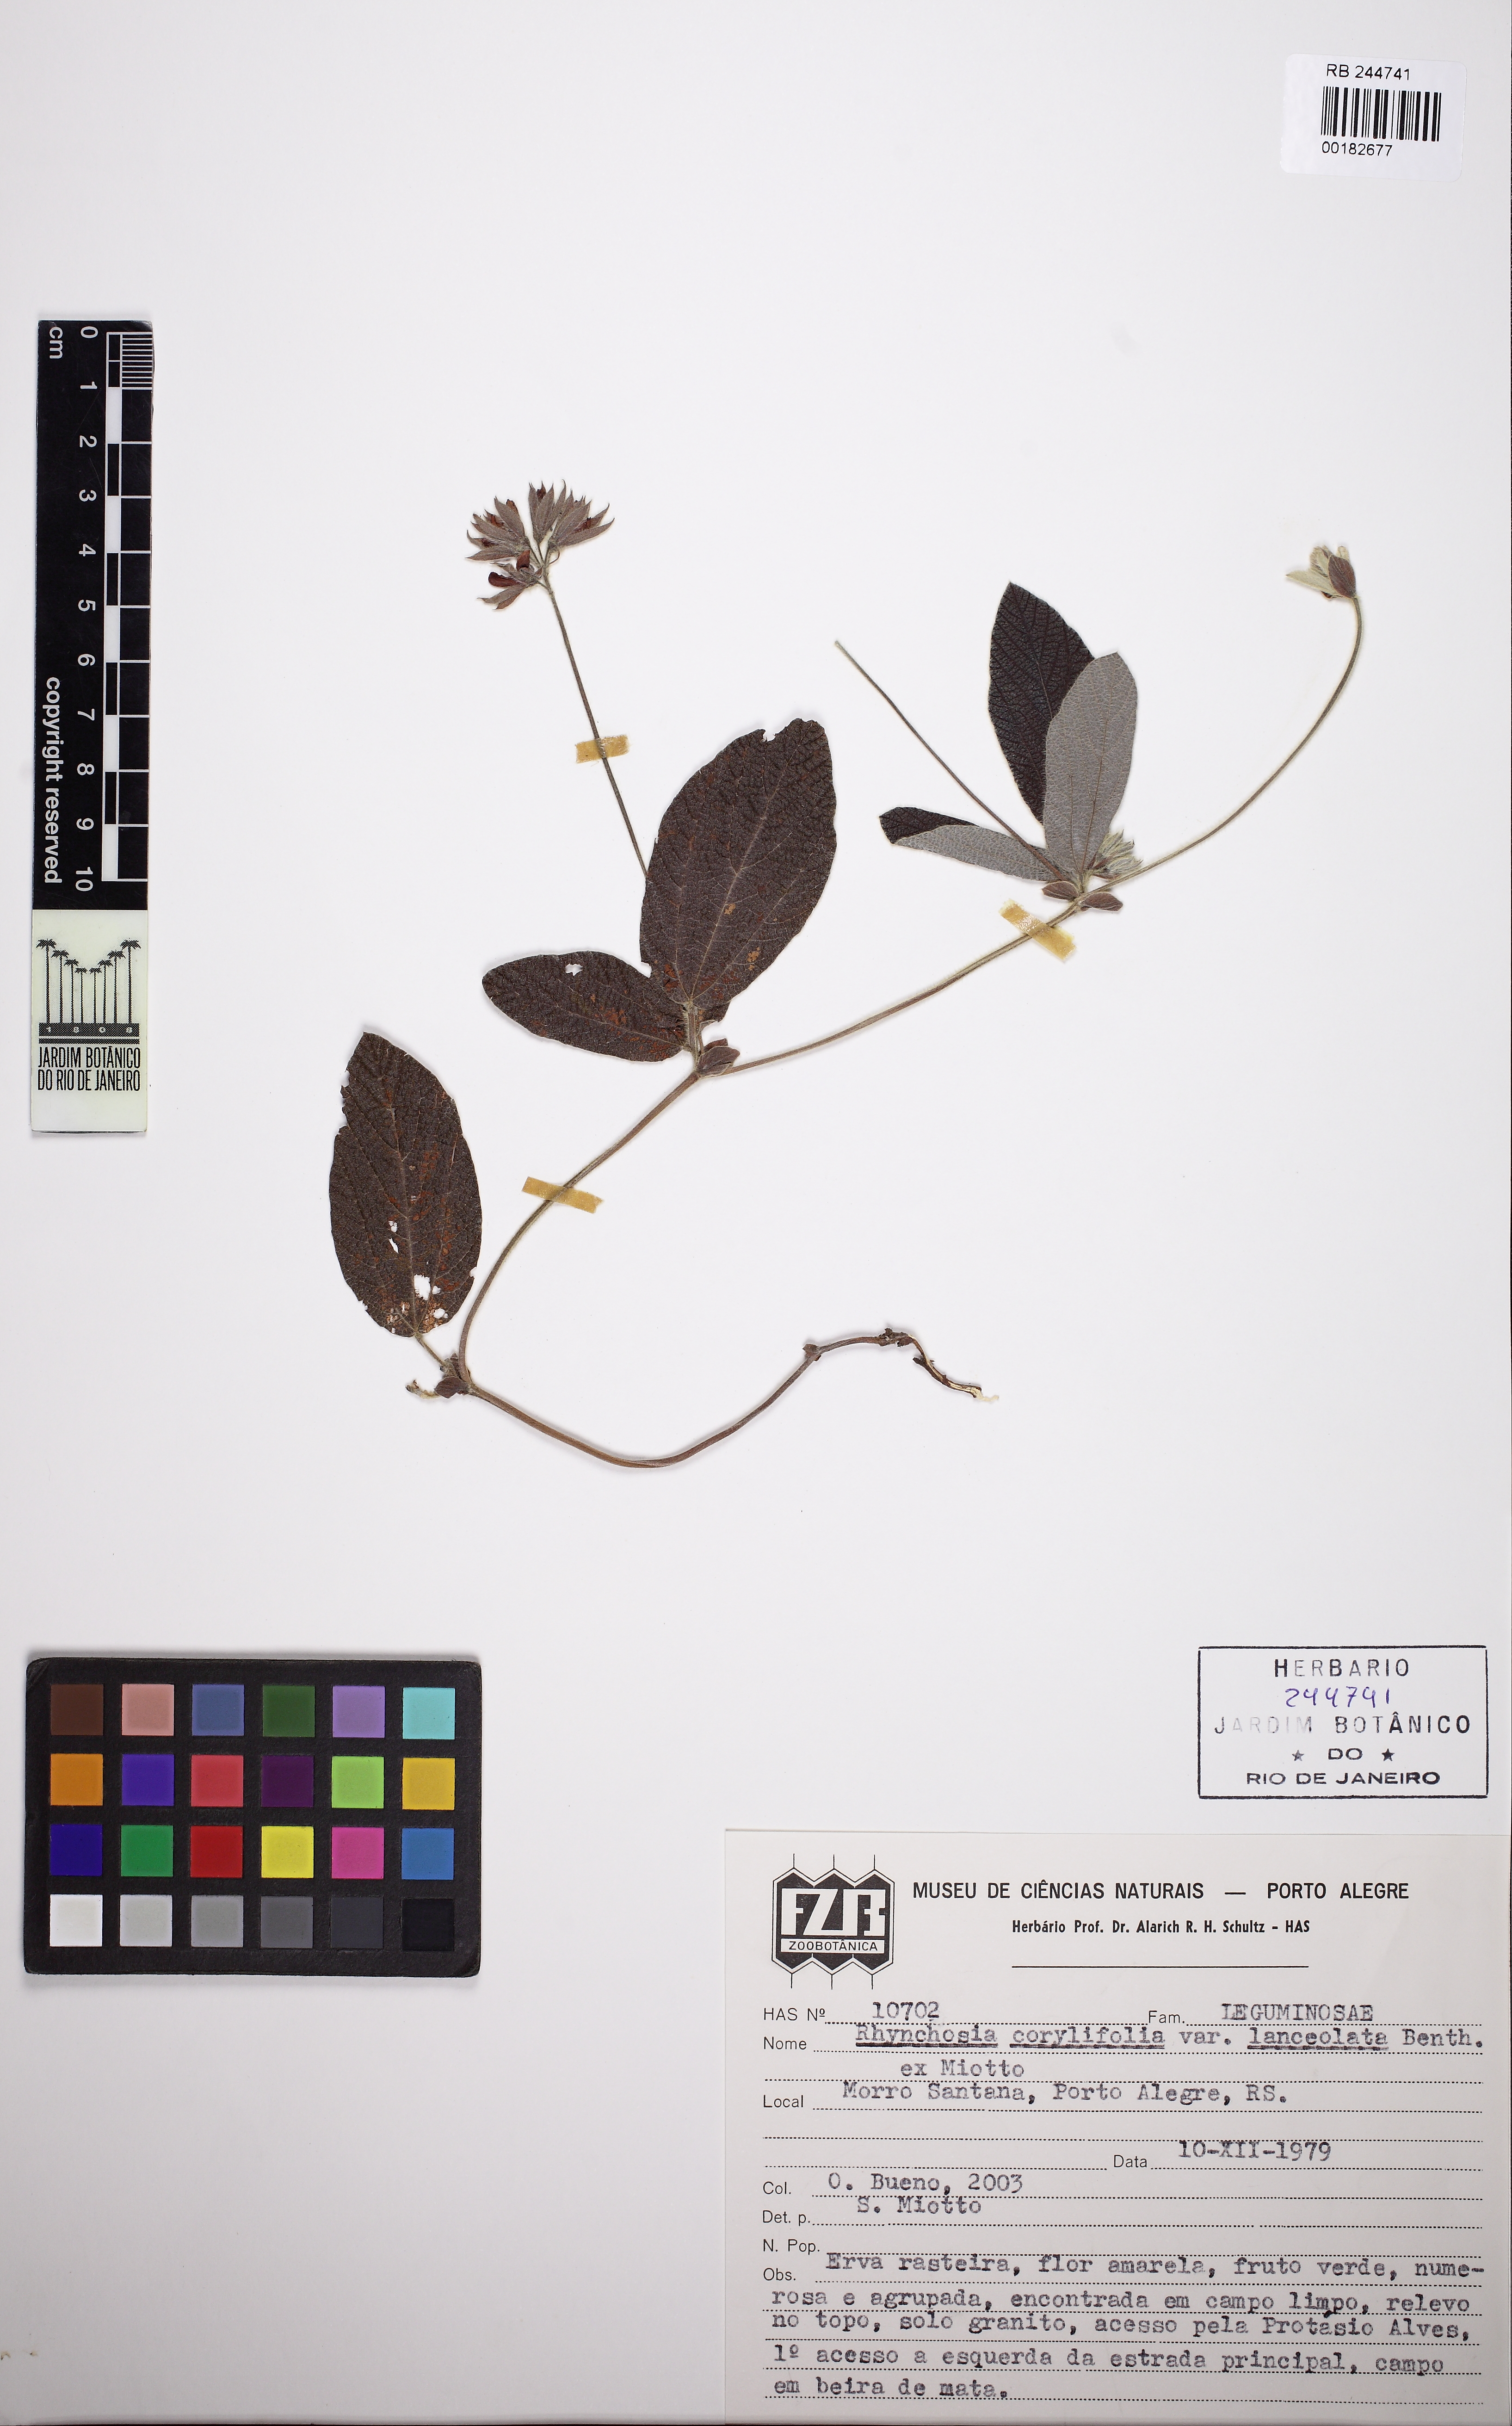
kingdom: Plantae
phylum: Tracheophyta
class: Magnoliopsida
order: Fabales
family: Fabaceae
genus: Rhynchosia
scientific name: Rhynchosia corylifolia
